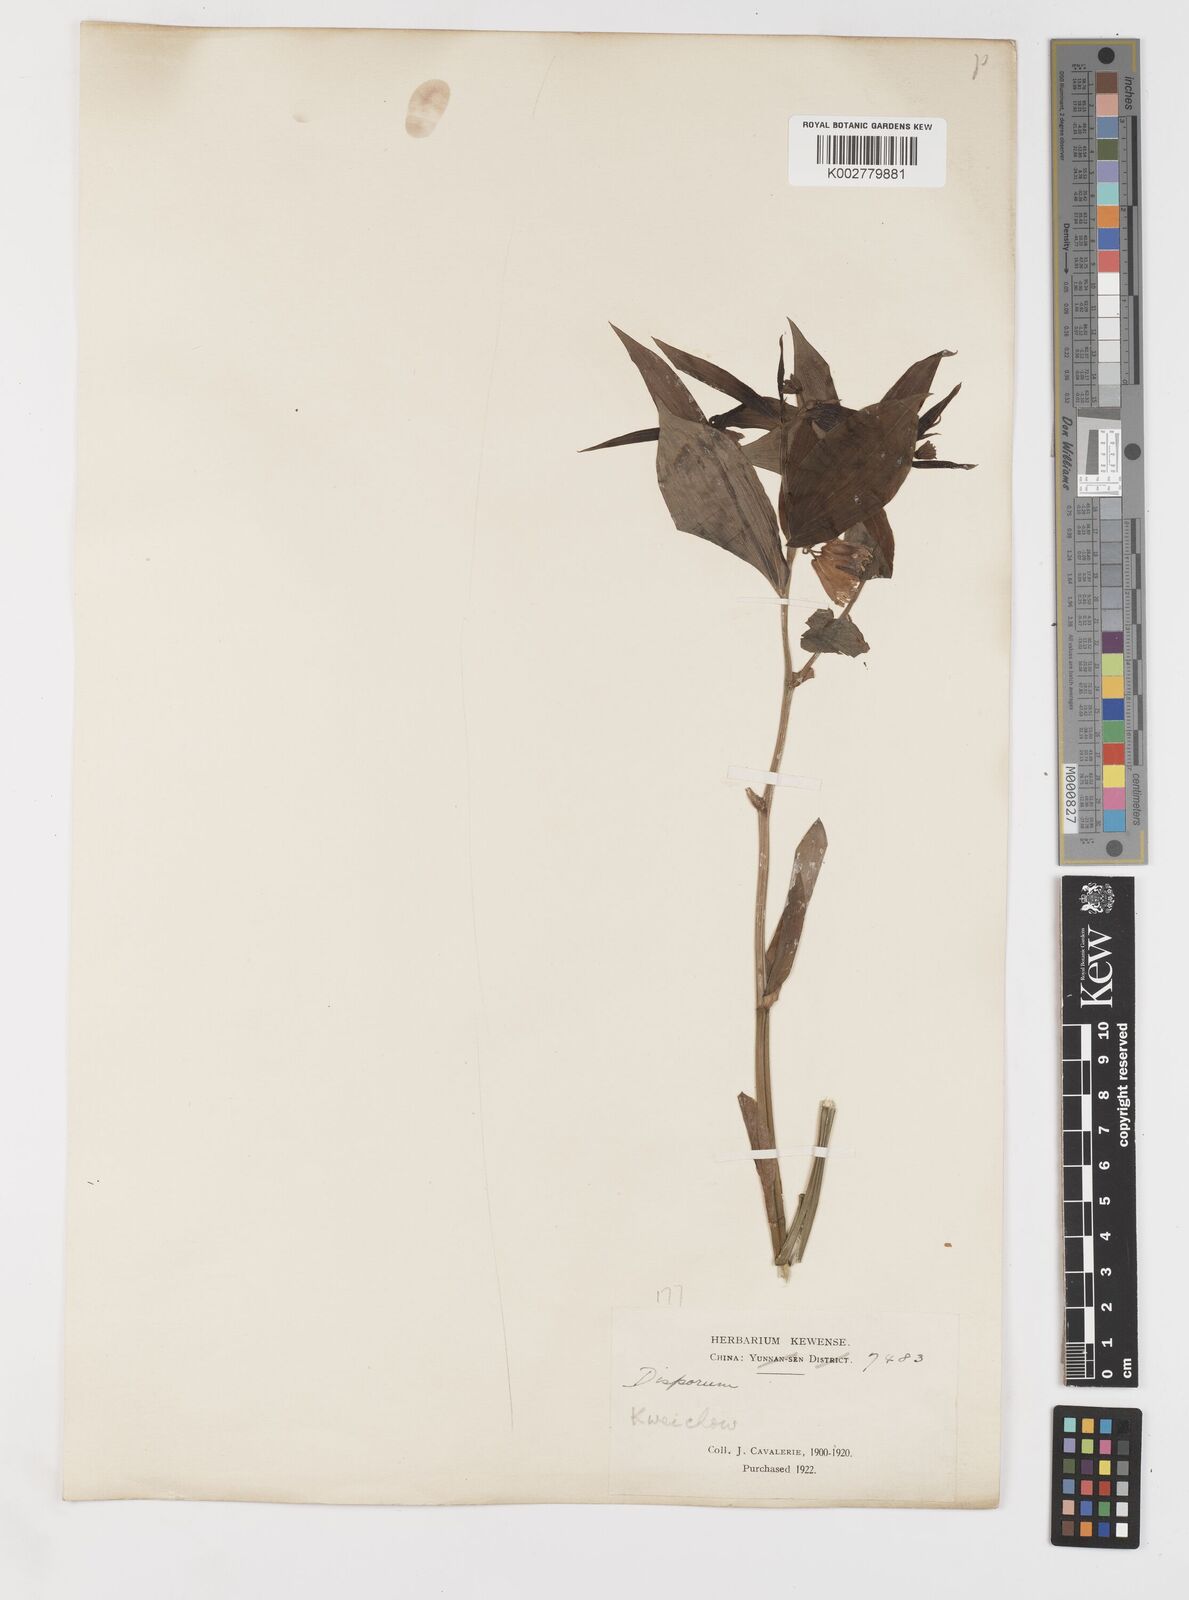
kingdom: Plantae
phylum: Tracheophyta
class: Liliopsida
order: Liliales
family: Colchicaceae
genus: Disporum
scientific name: Disporum
